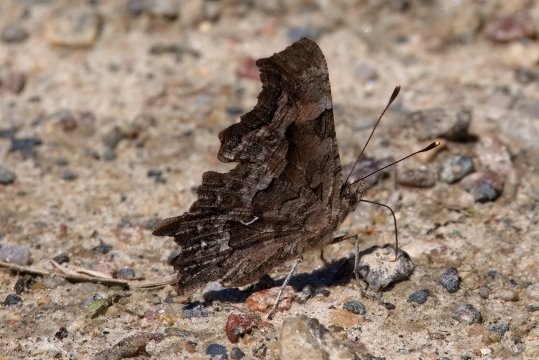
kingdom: Animalia
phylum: Arthropoda
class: Insecta
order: Lepidoptera
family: Nymphalidae
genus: Polygonia
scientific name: Polygonia faunus
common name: Green Comma
